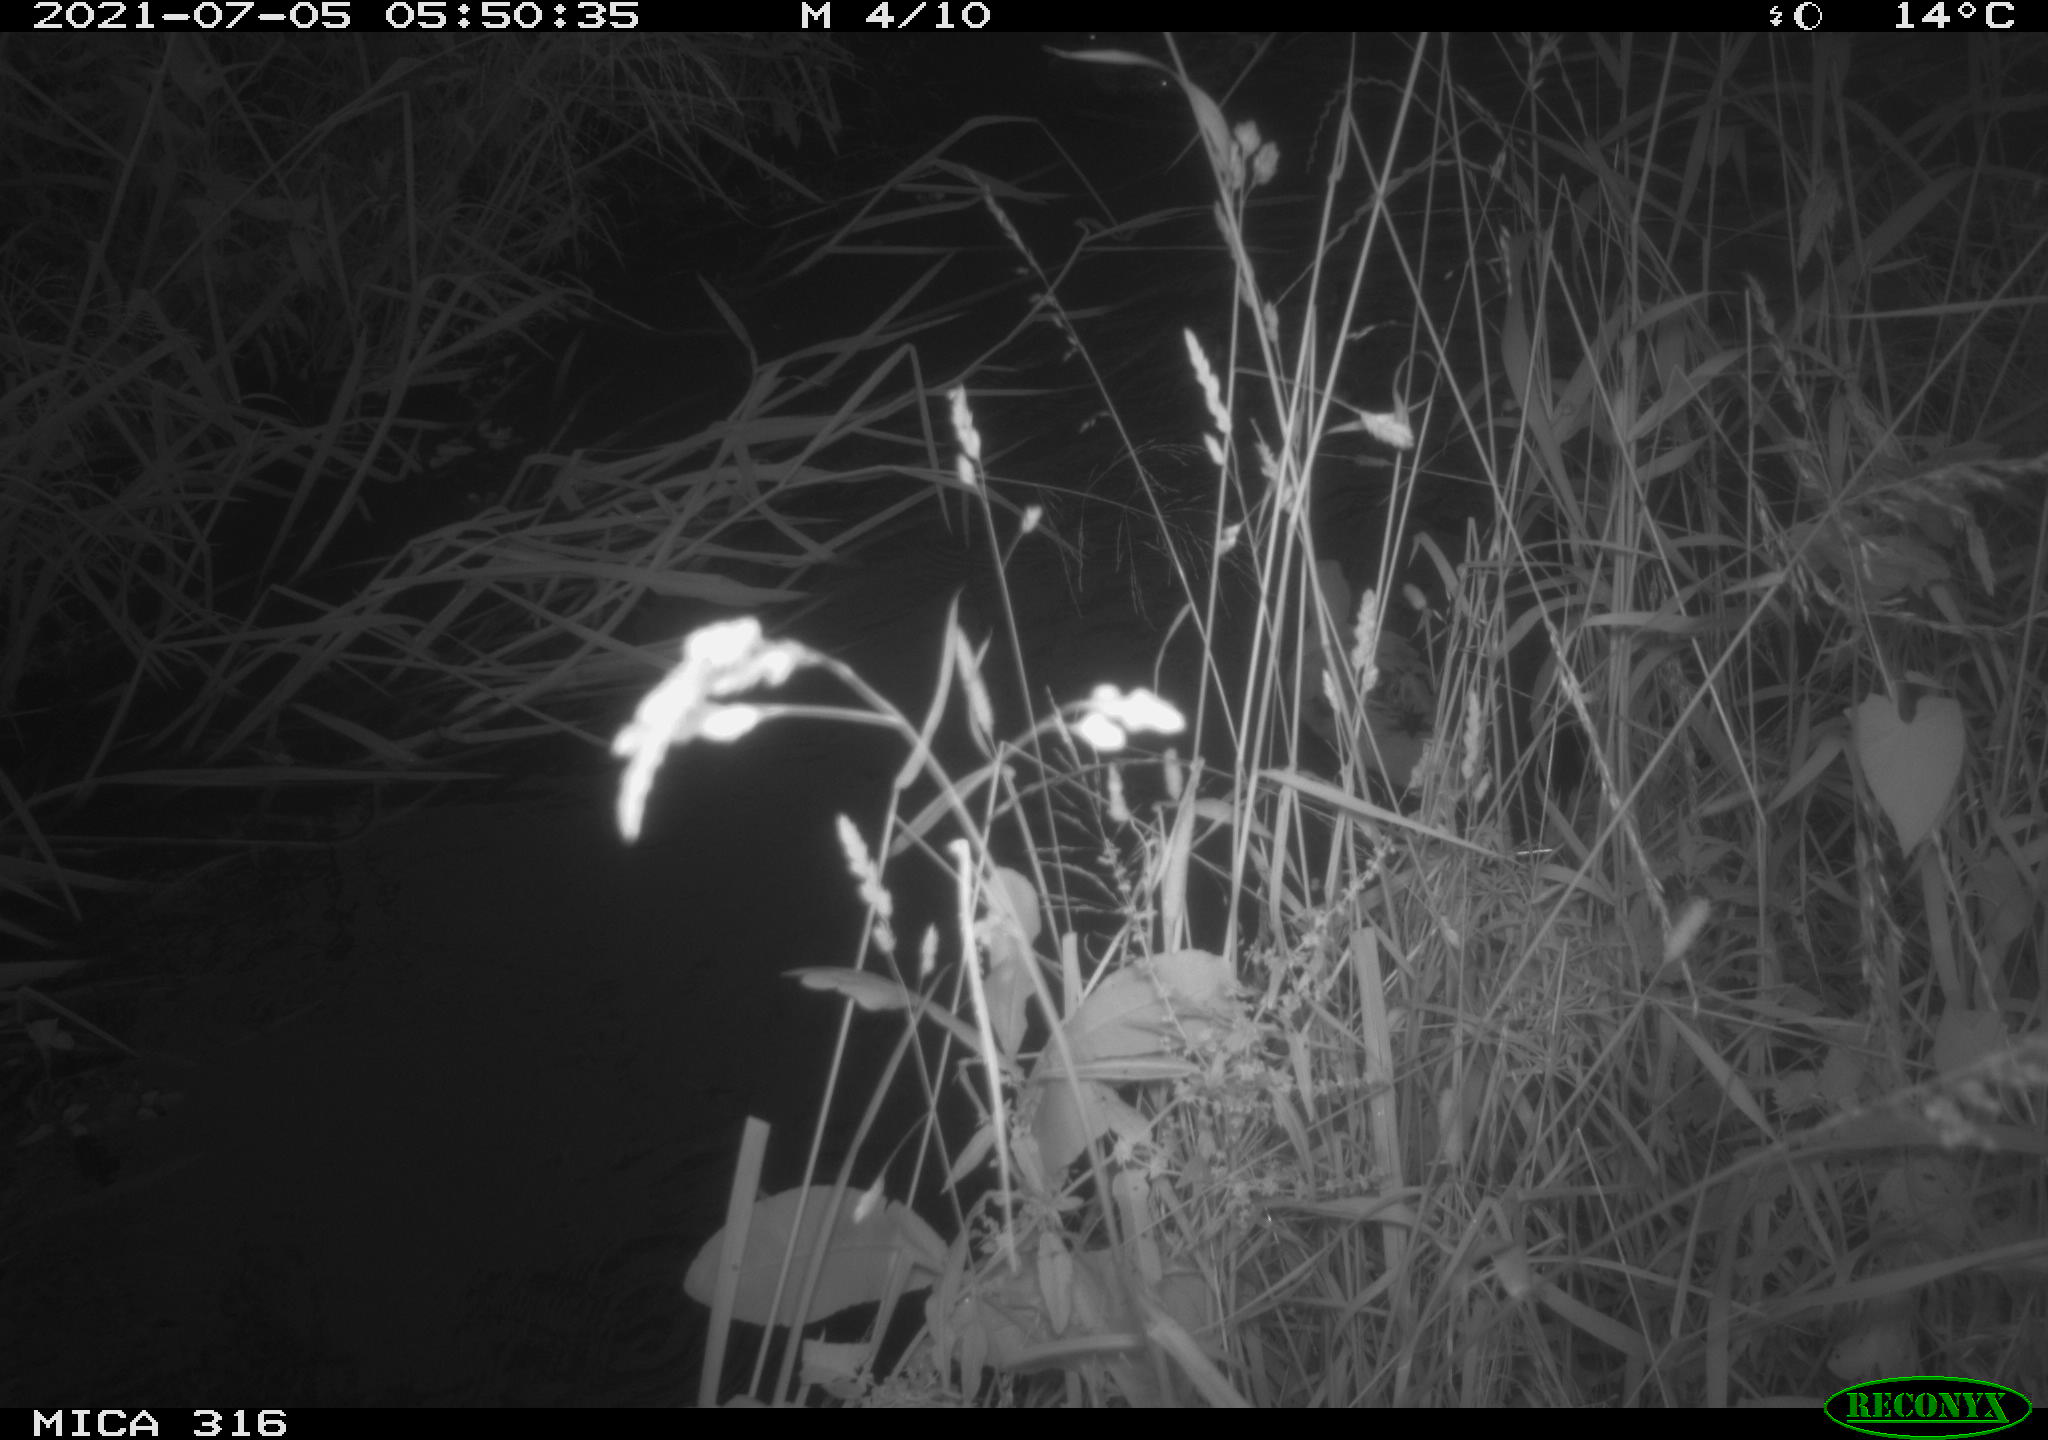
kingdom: Animalia
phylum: Chordata
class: Aves
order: Anseriformes
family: Anatidae
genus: Anas
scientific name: Anas platyrhynchos
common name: Mallard
